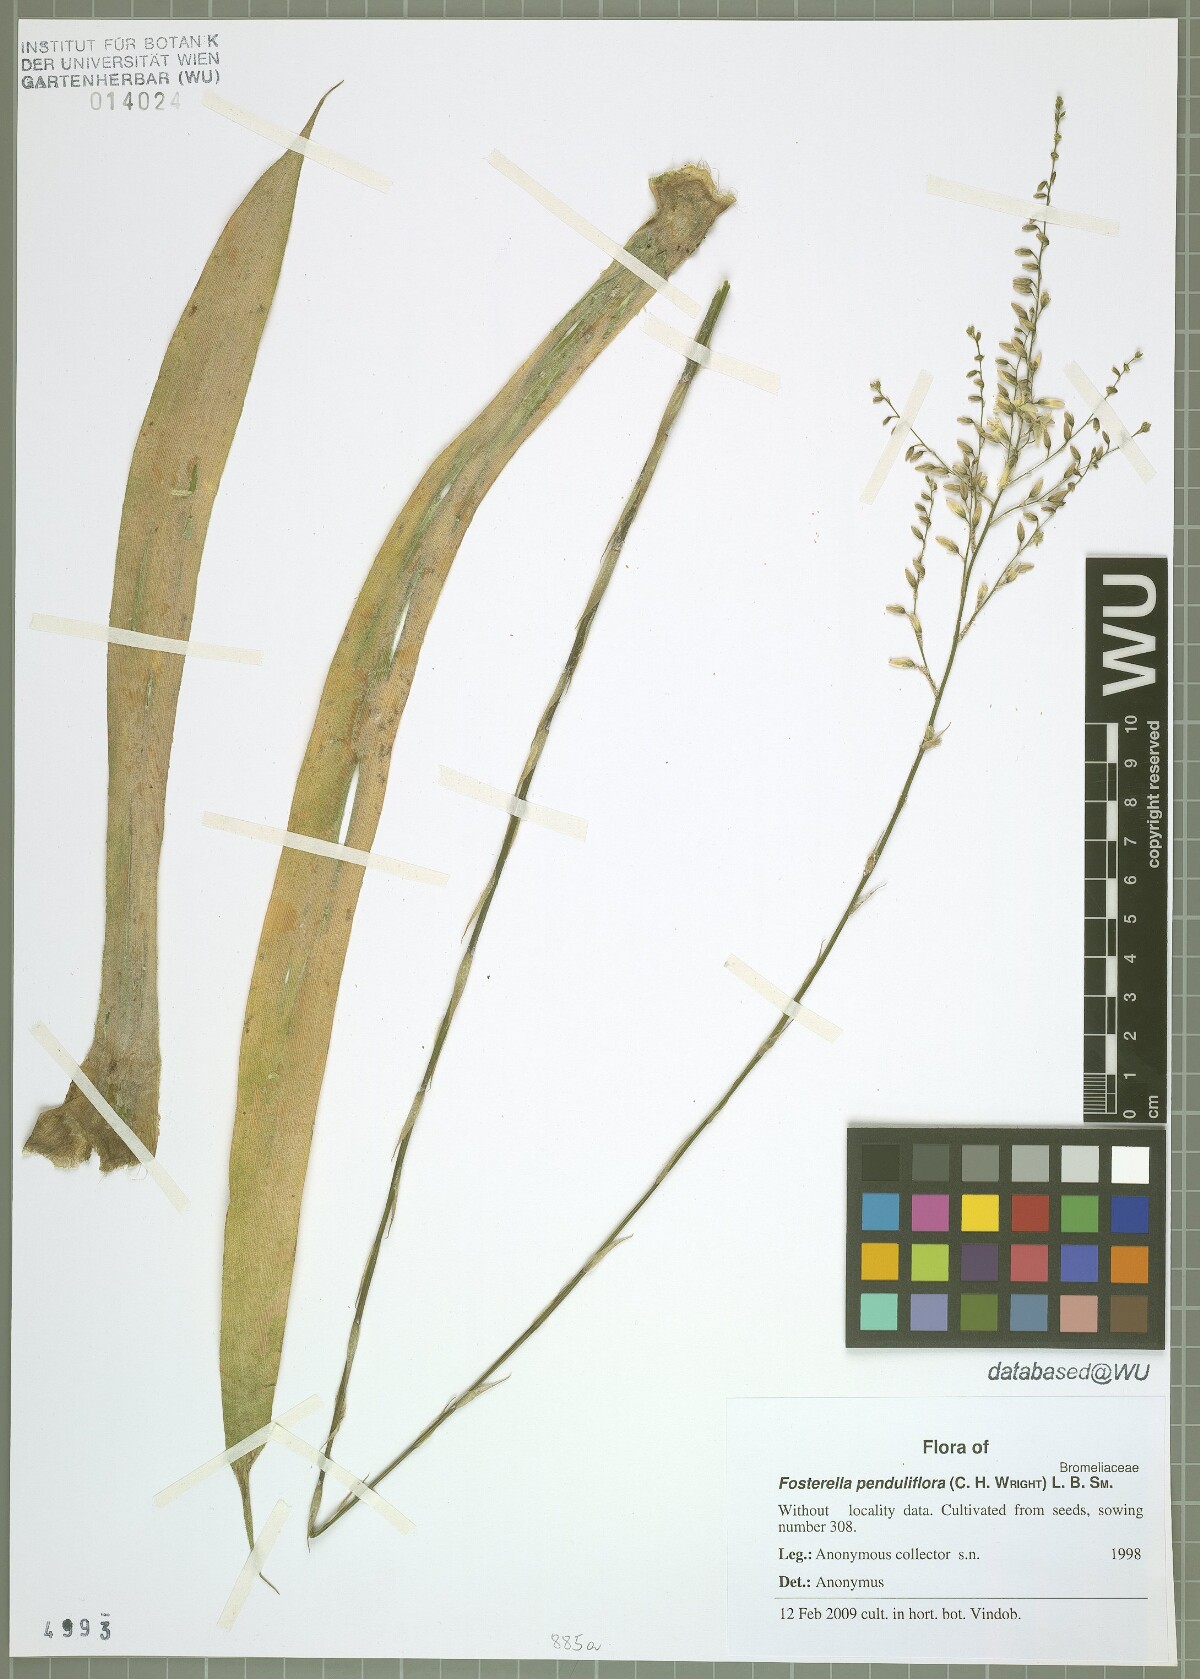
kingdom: Plantae
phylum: Tracheophyta
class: Liliopsida
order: Poales
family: Bromeliaceae
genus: Fosterella
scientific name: Fosterella penduliflora
